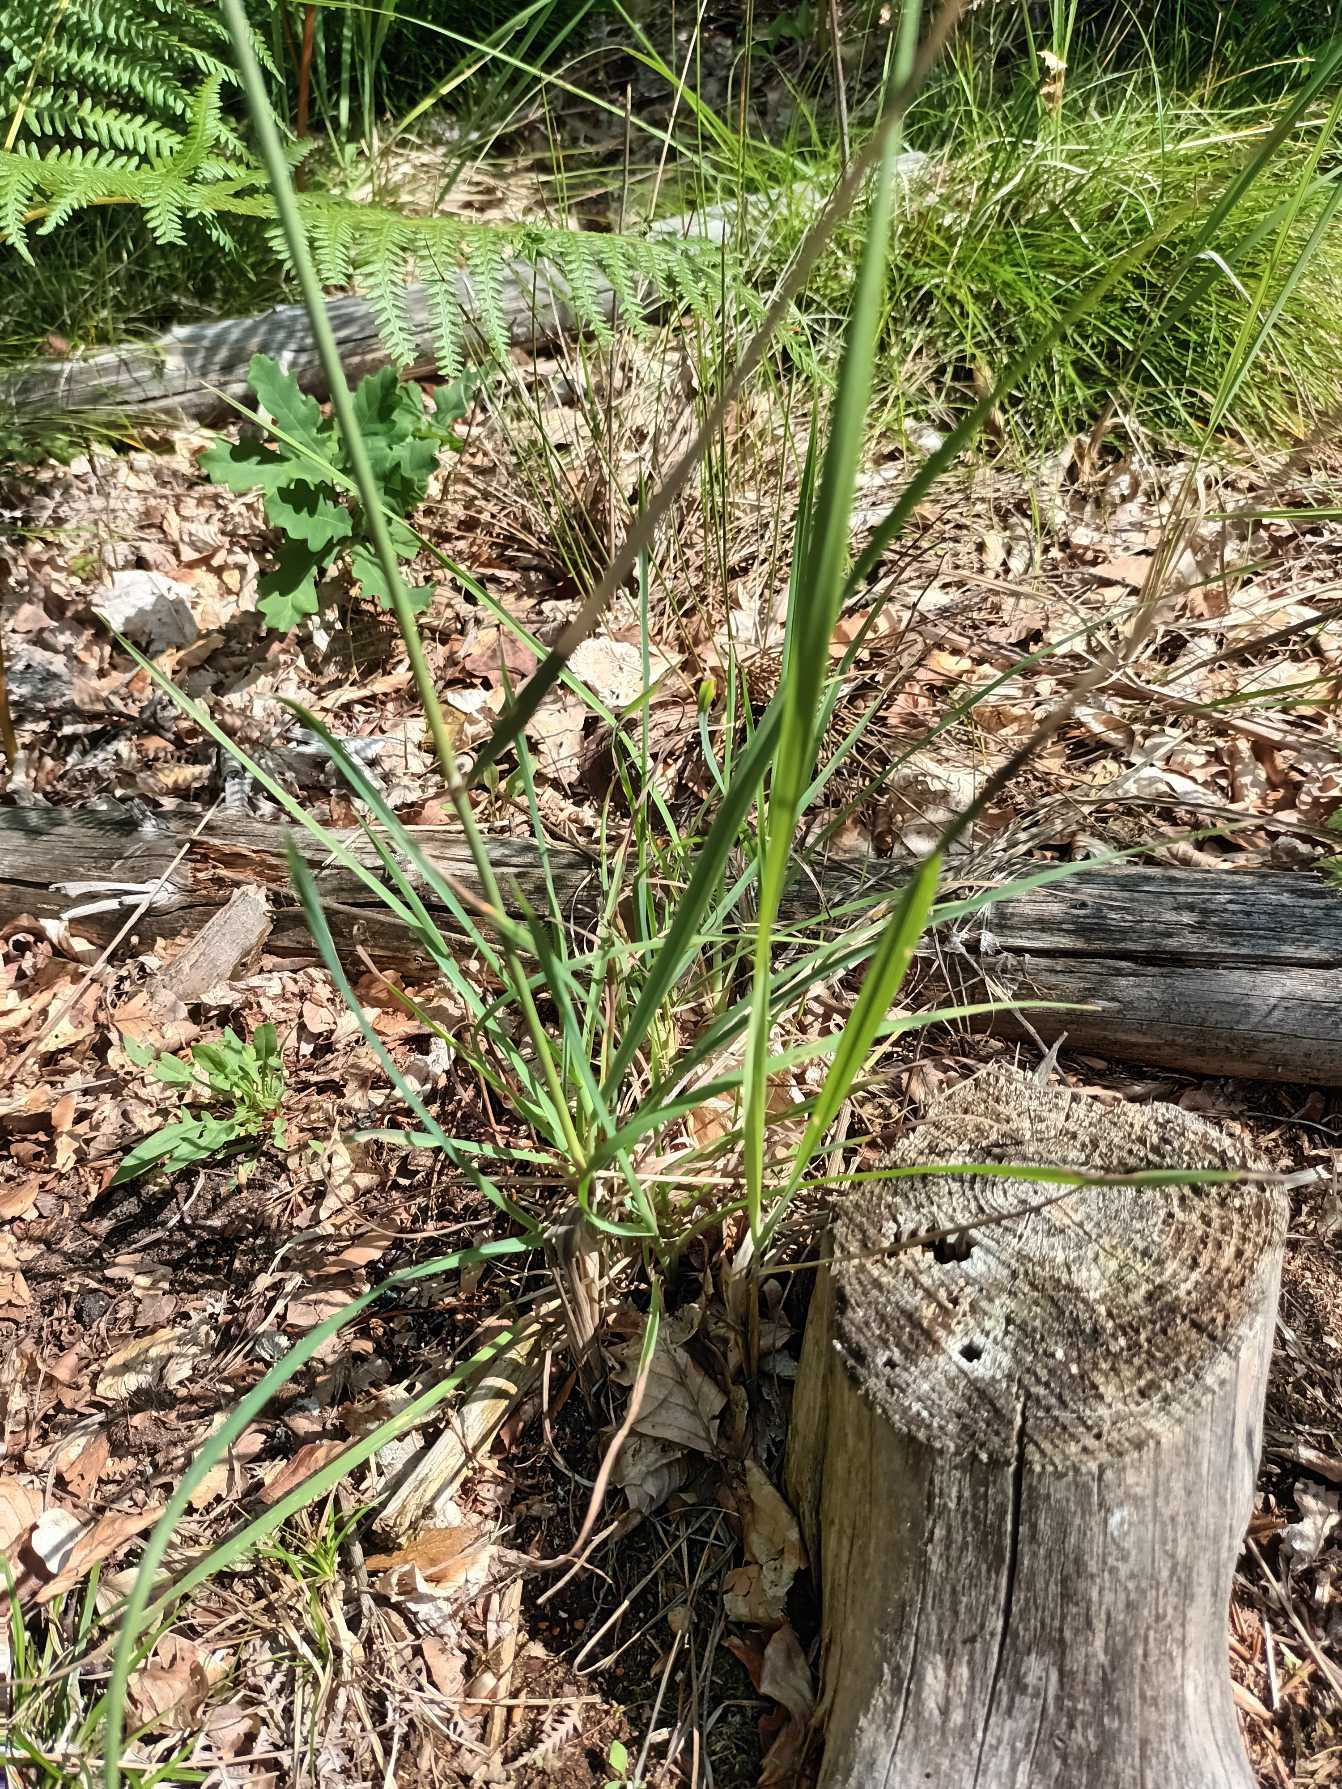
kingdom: Plantae
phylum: Tracheophyta
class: Liliopsida
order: Poales
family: Poaceae
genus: Calamagrostis
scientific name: Calamagrostis epigejos
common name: Bjerg-rørhvene
